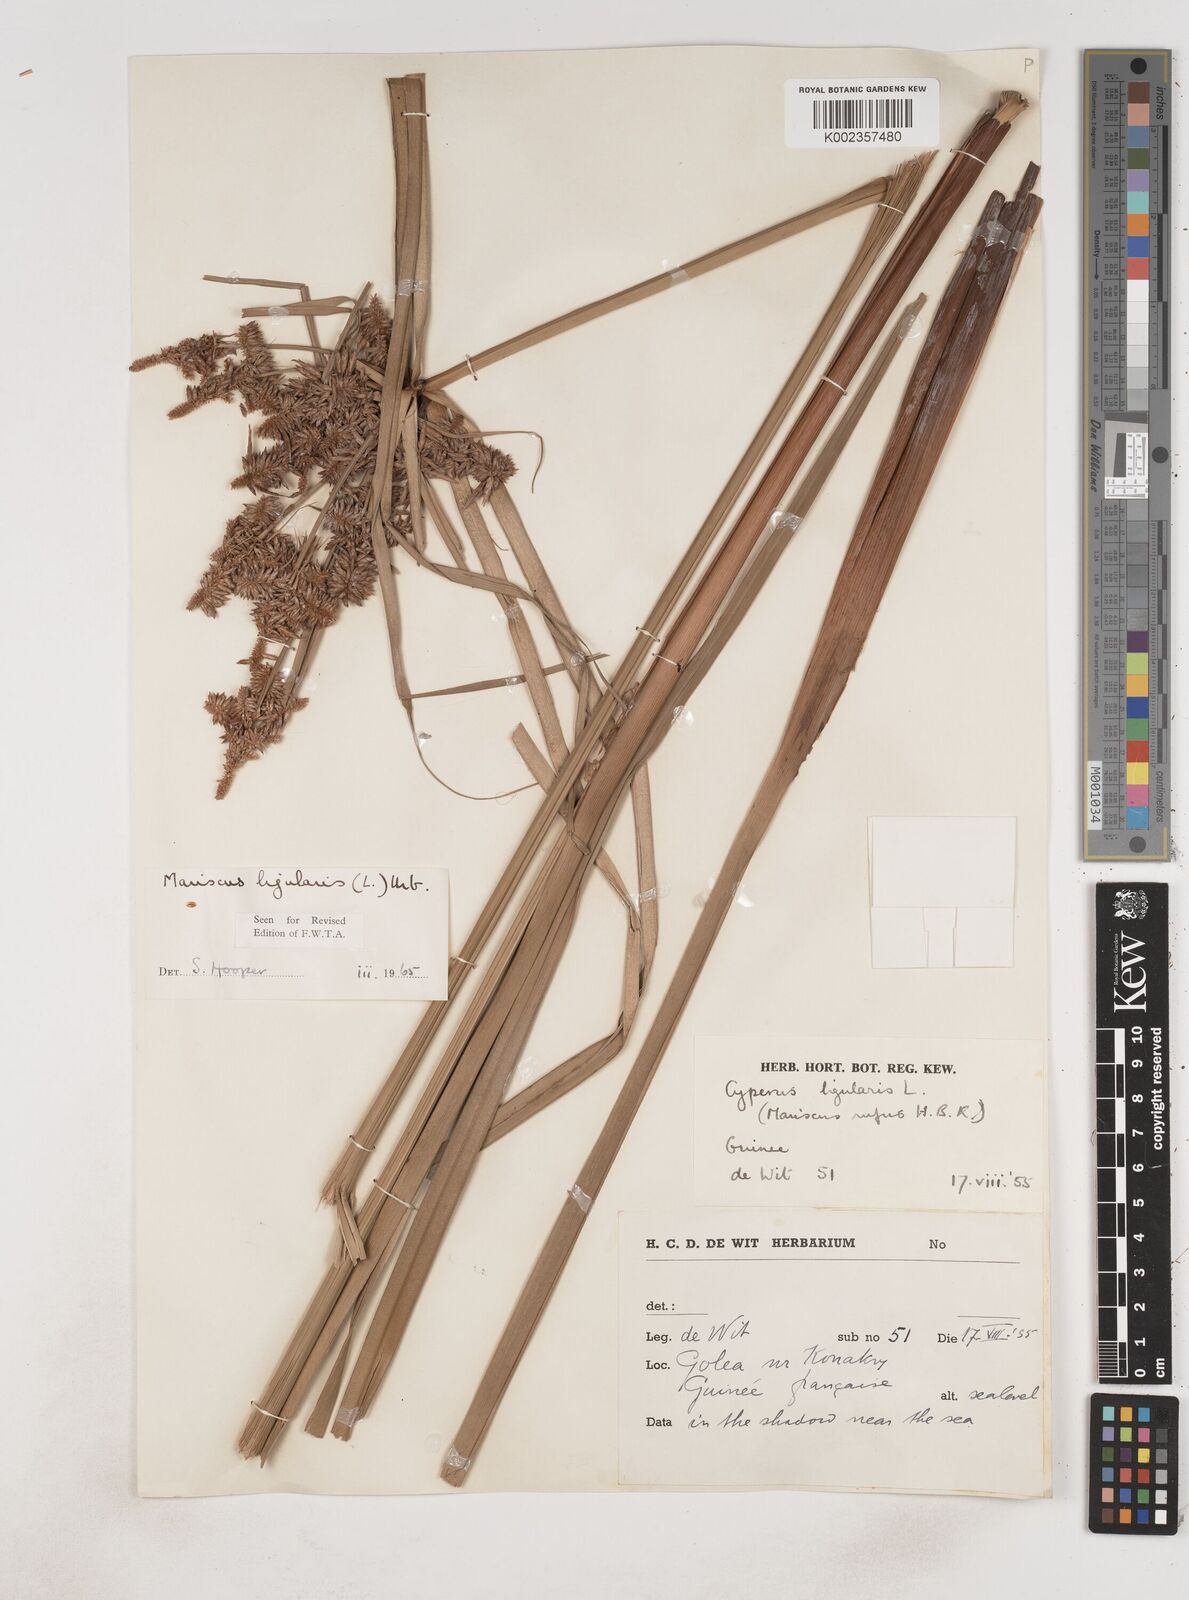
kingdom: Plantae
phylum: Tracheophyta
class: Liliopsida
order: Poales
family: Cyperaceae
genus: Cyperus
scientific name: Cyperus ligularis
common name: Swamp flat sedge
